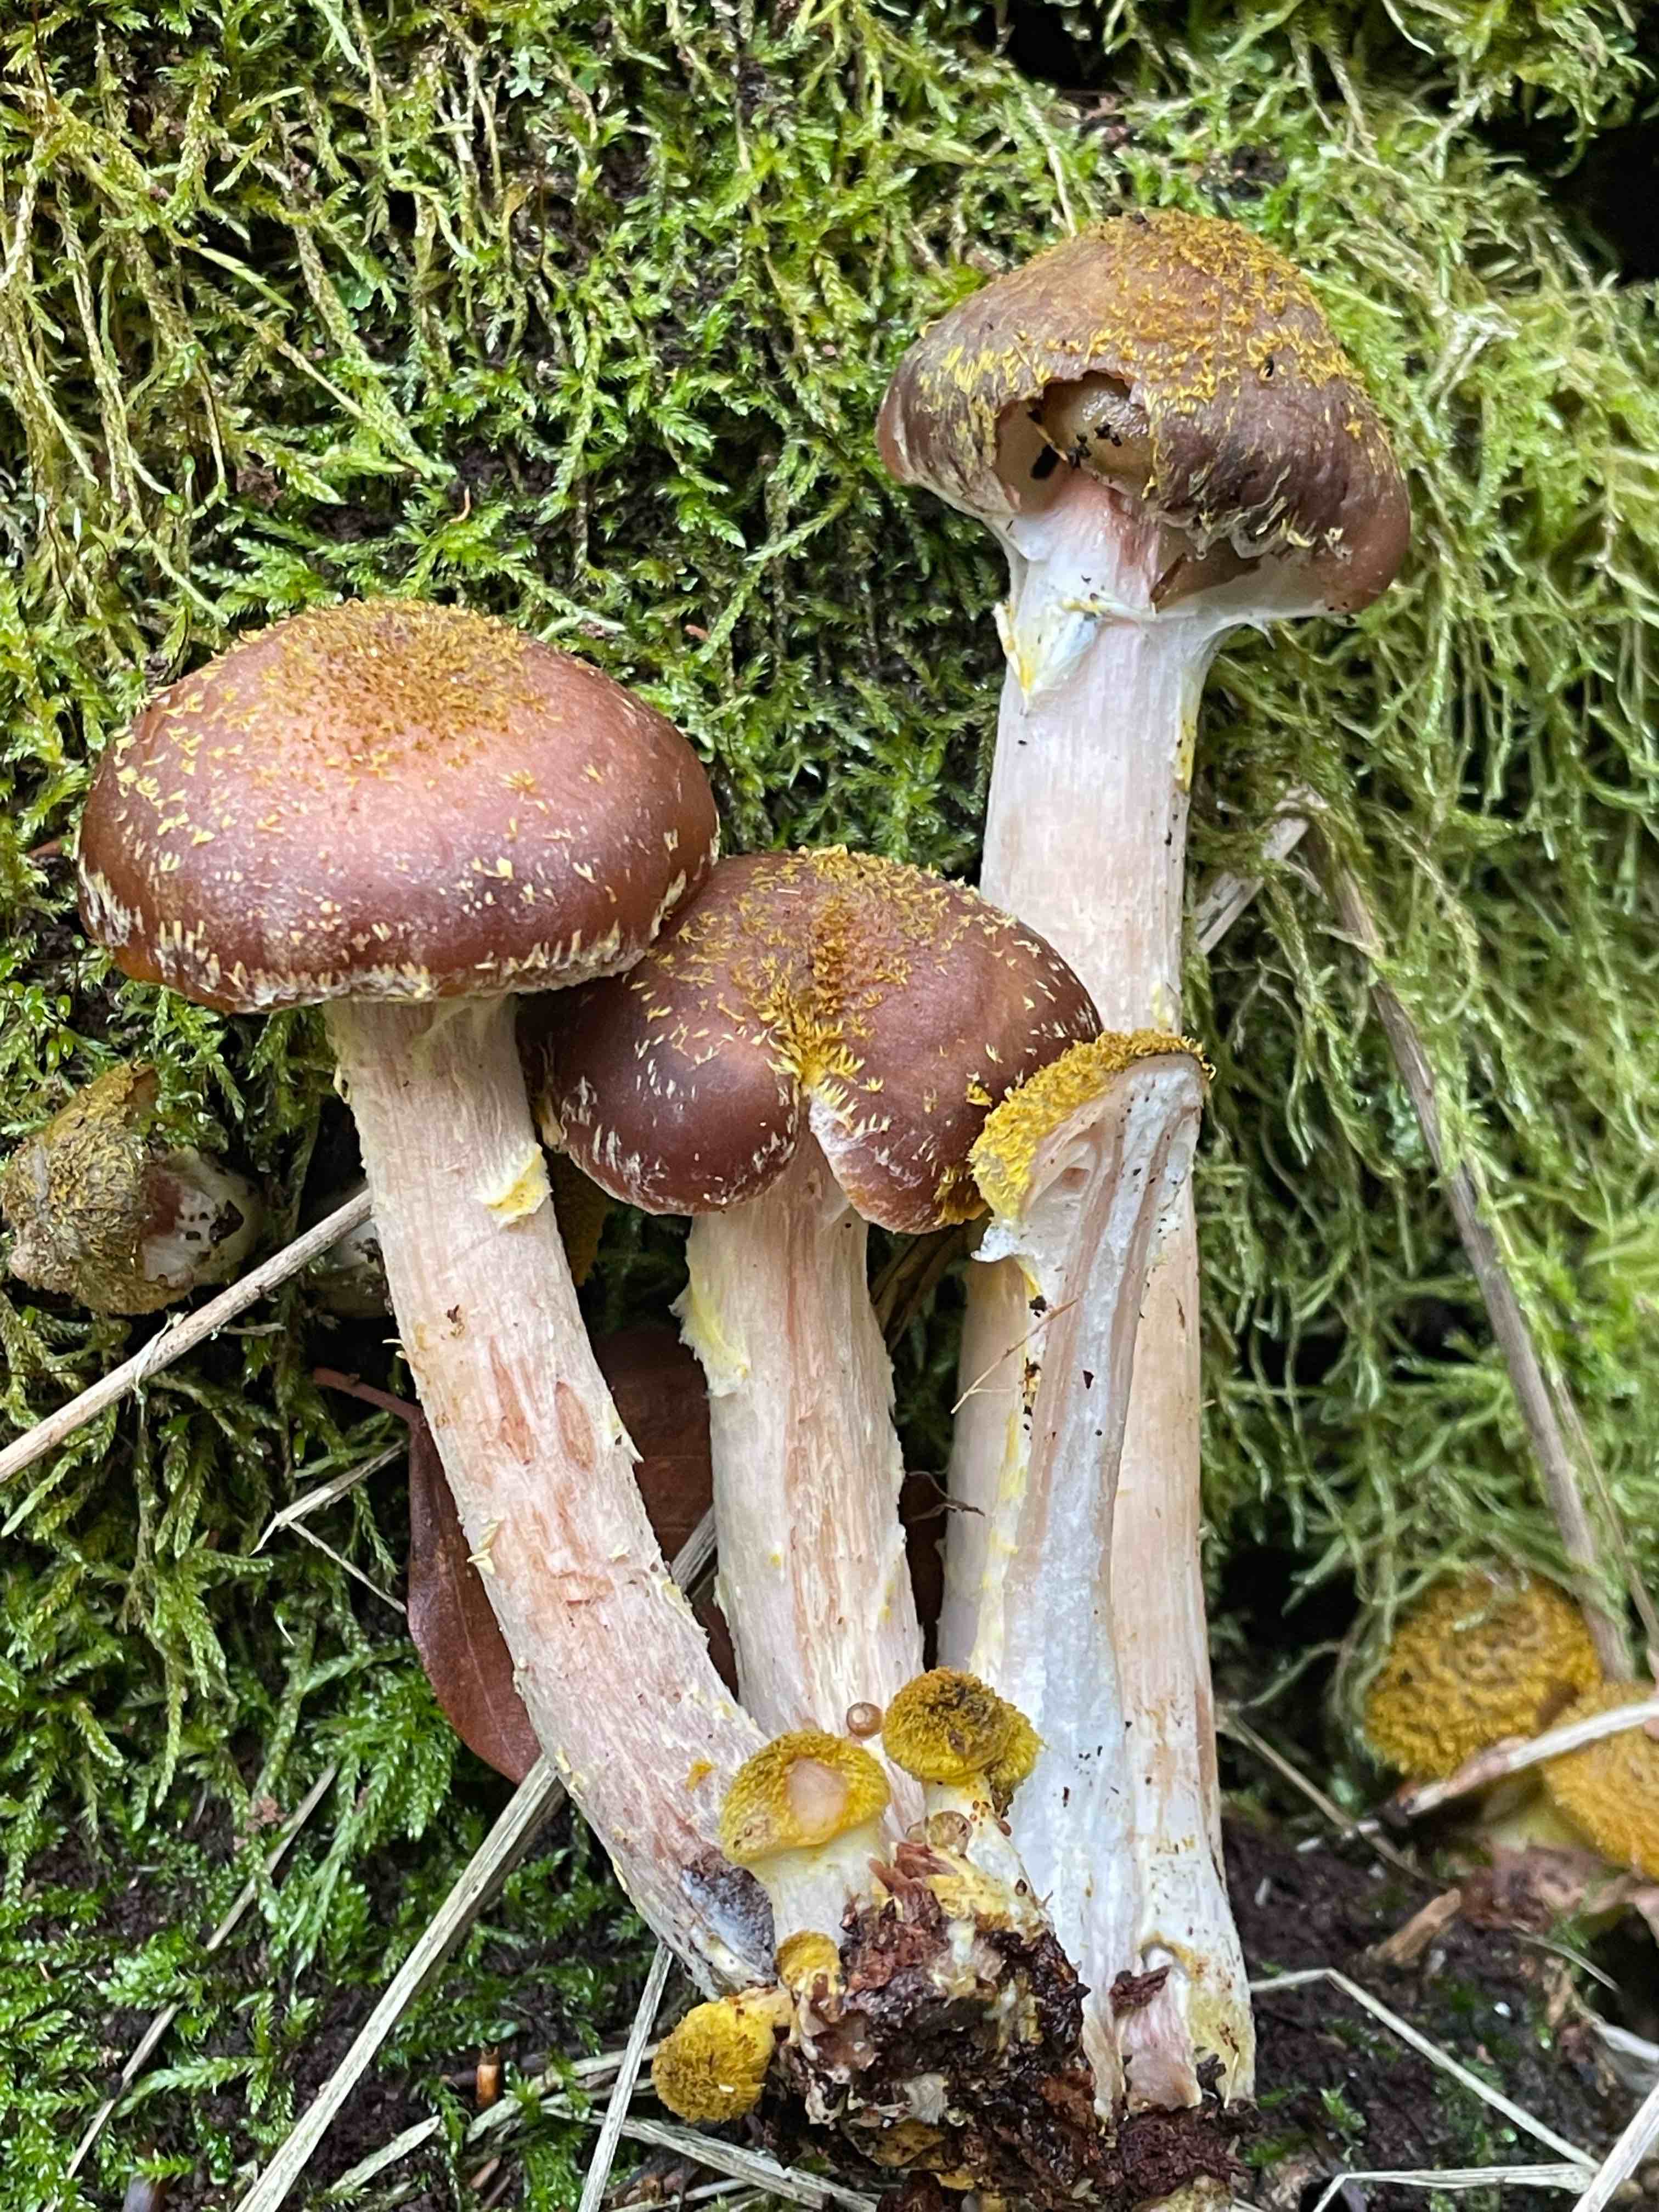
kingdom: Fungi
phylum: Basidiomycota
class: Agaricomycetes
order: Agaricales
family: Physalacriaceae
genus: Armillaria
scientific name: Armillaria lutea
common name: køllestokket honningsvamp
